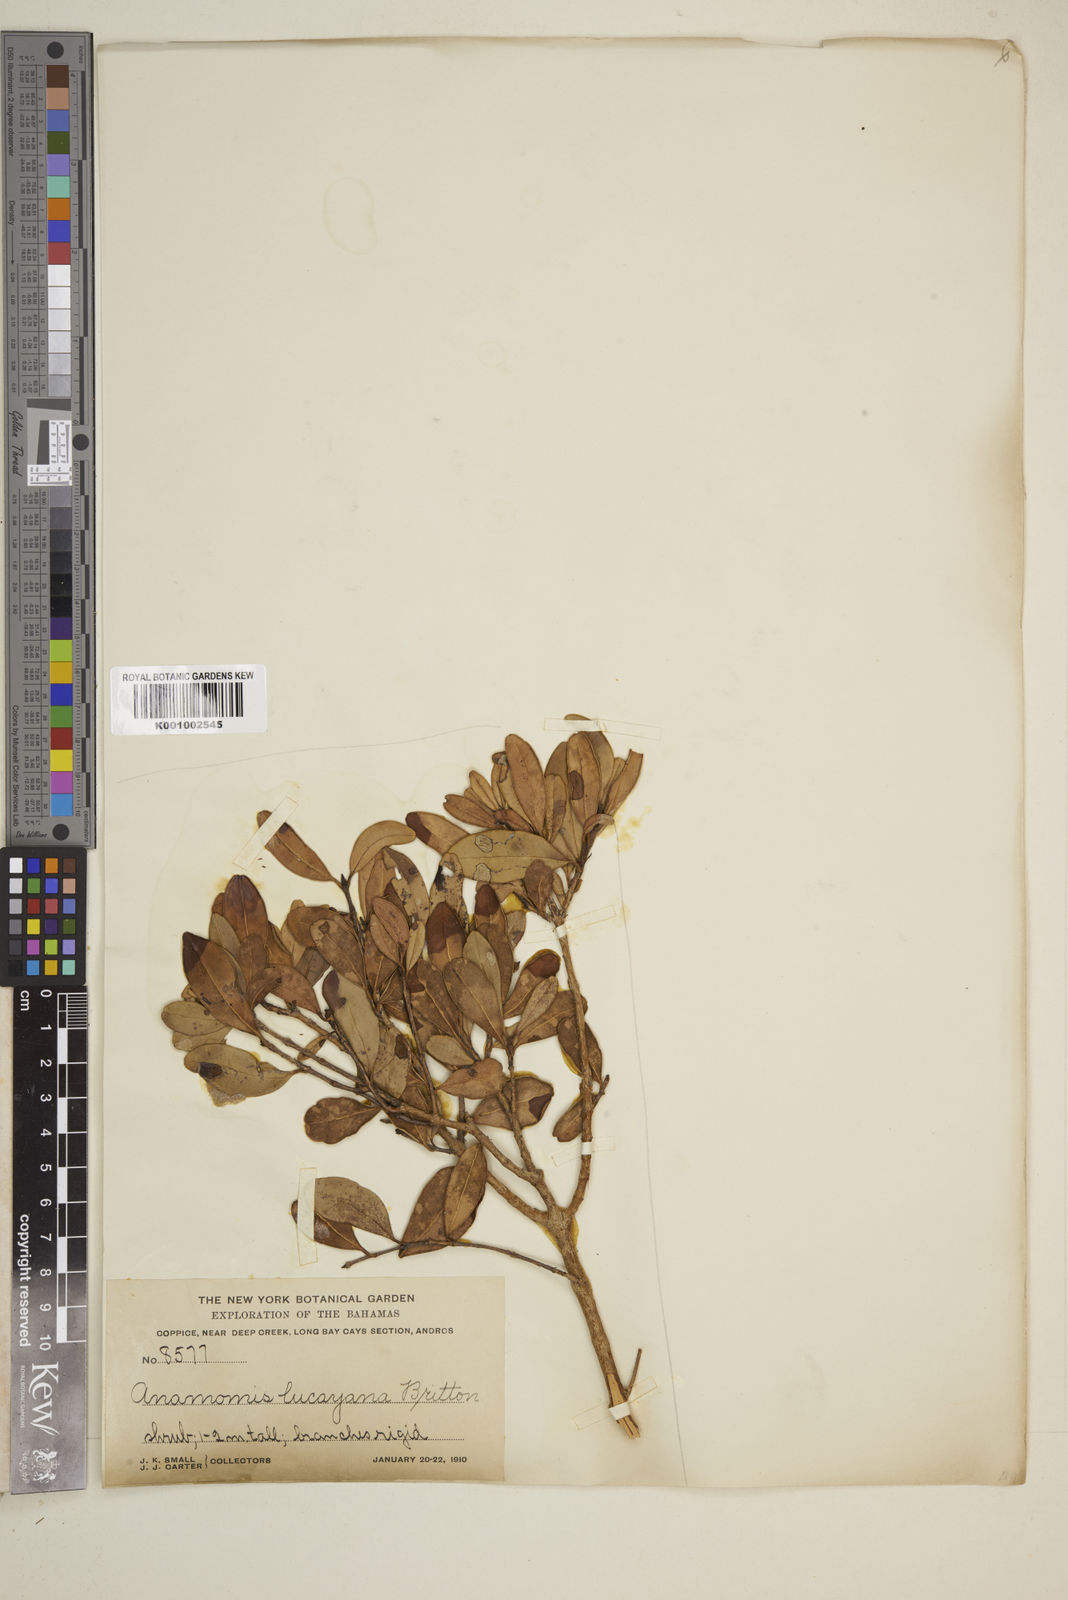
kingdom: Plantae
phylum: Tracheophyta
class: Magnoliopsida
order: Myrtales
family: Myrtaceae
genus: Myrcianthes
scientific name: Myrcianthes fragrans
